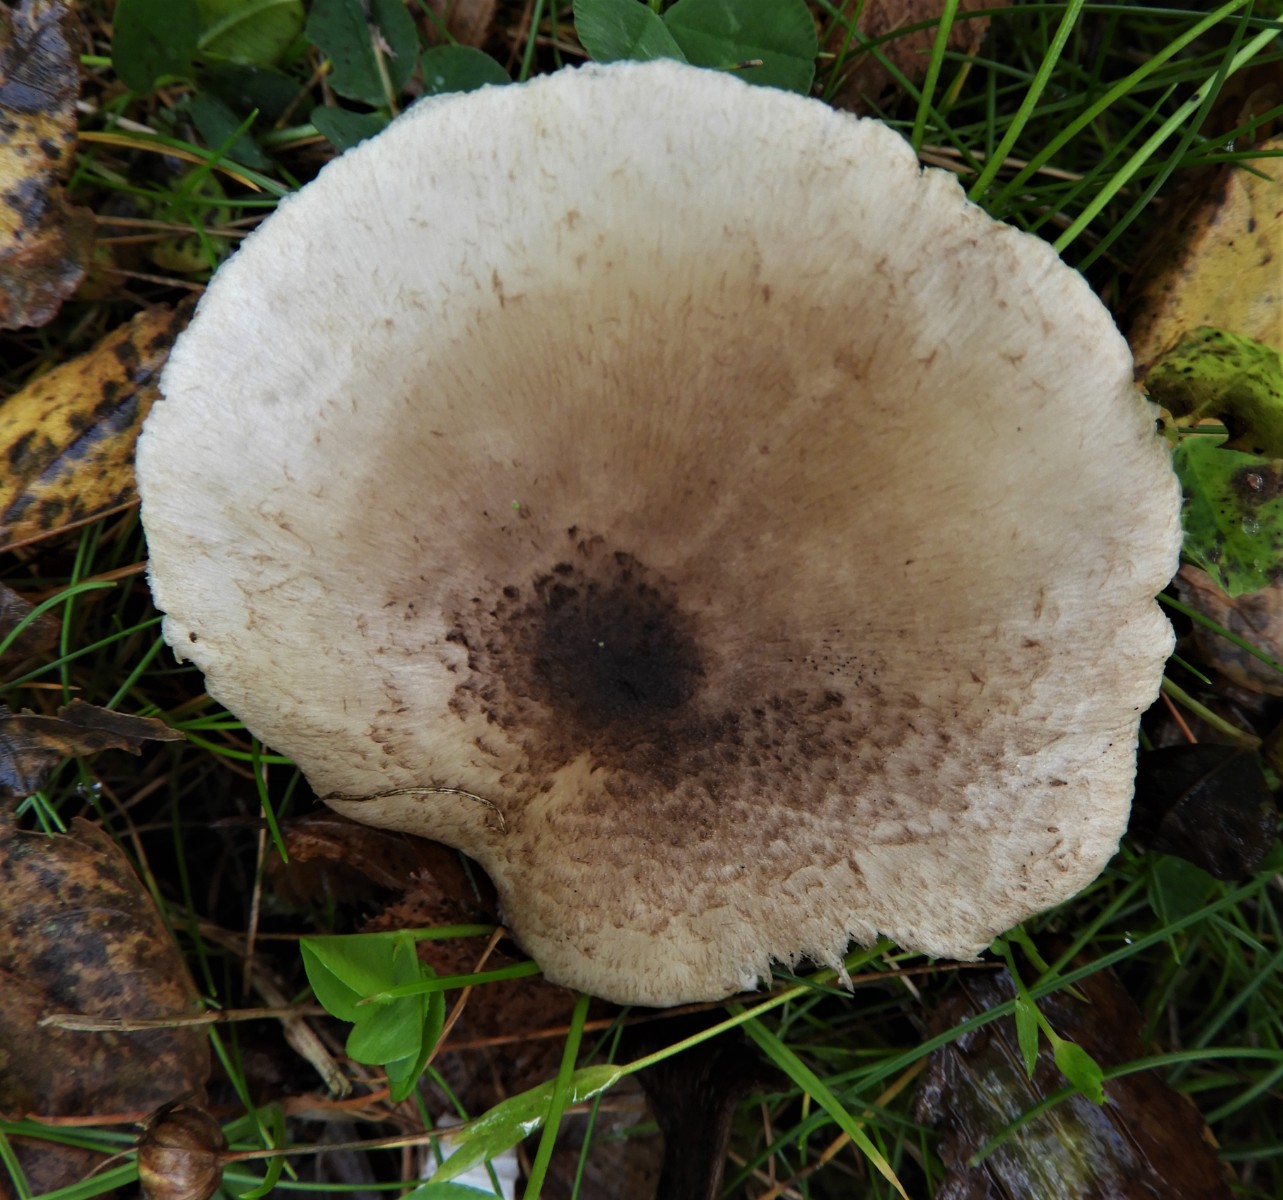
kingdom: Fungi
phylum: Basidiomycota
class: Agaricomycetes
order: Agaricales
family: Tricholomataceae
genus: Tricholoma
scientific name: Tricholoma scalpturatum
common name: gulplettet ridderhat
